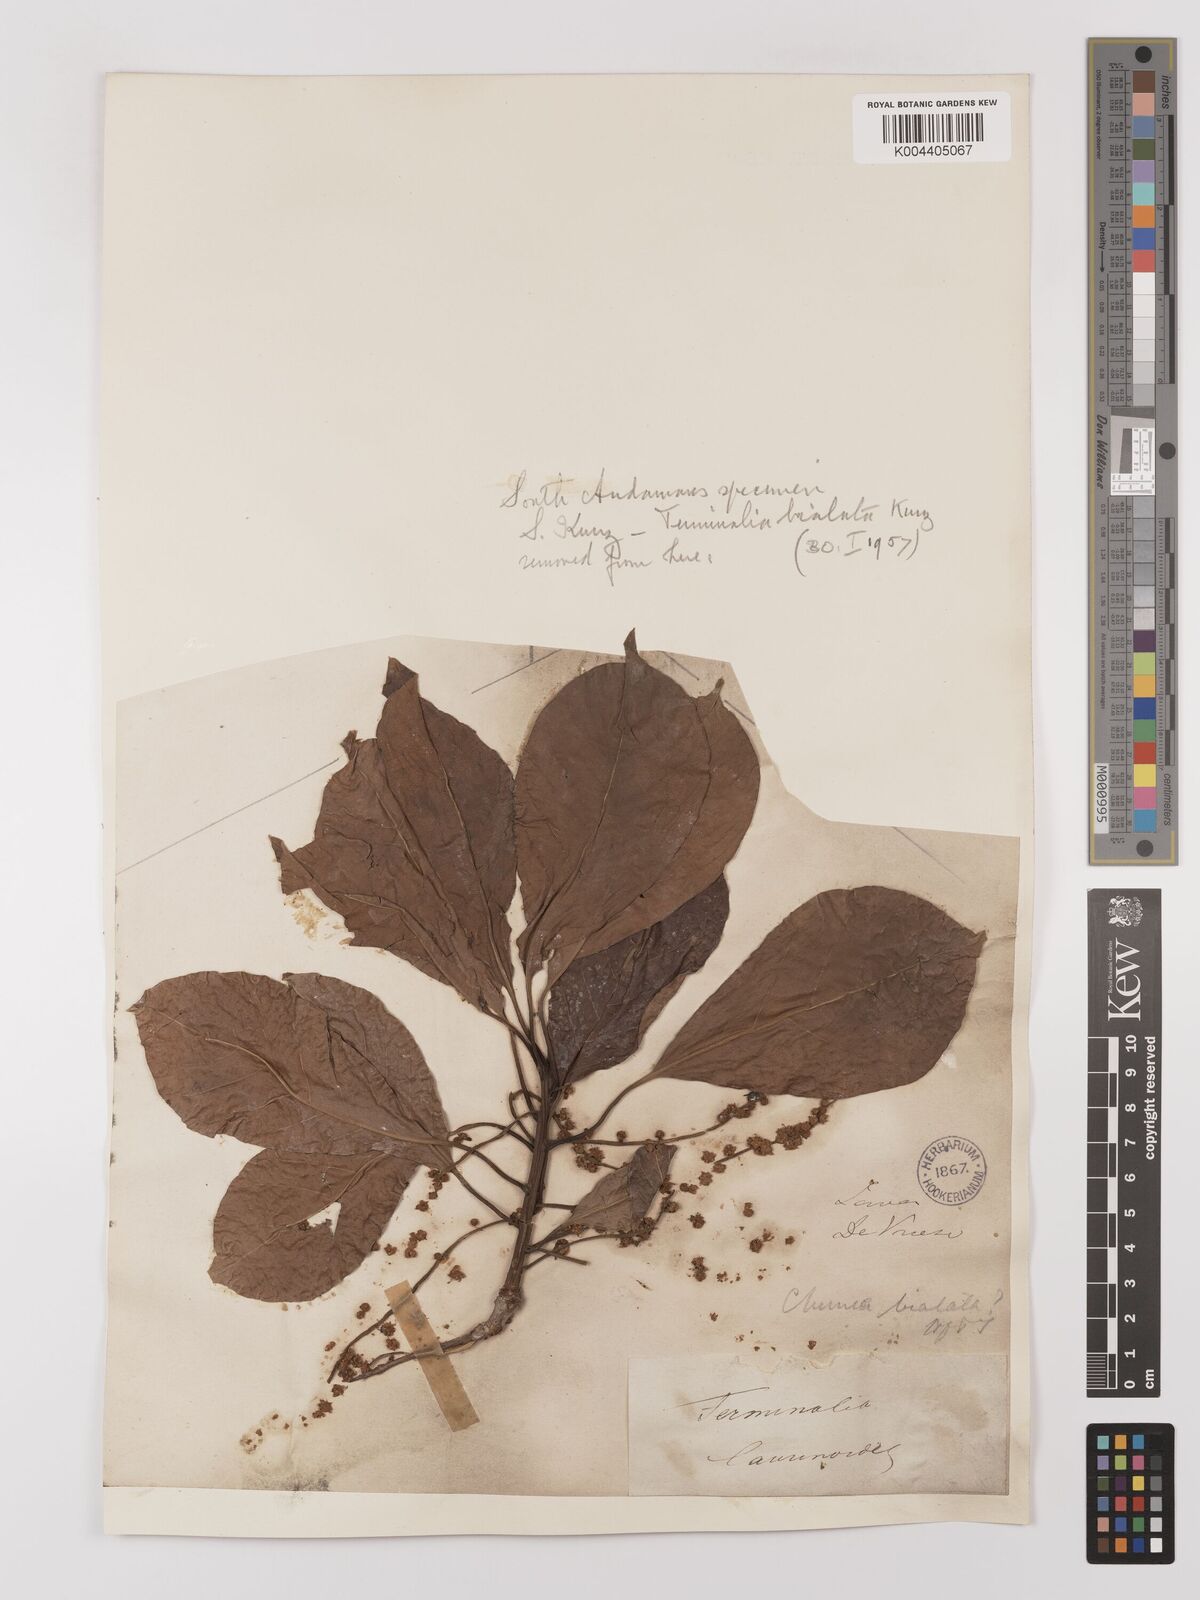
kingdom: Plantae
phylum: Tracheophyta
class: Magnoliopsida
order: Myrtales
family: Combretaceae
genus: Terminalia
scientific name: Terminalia bellirica
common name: Beleric myrobalan
